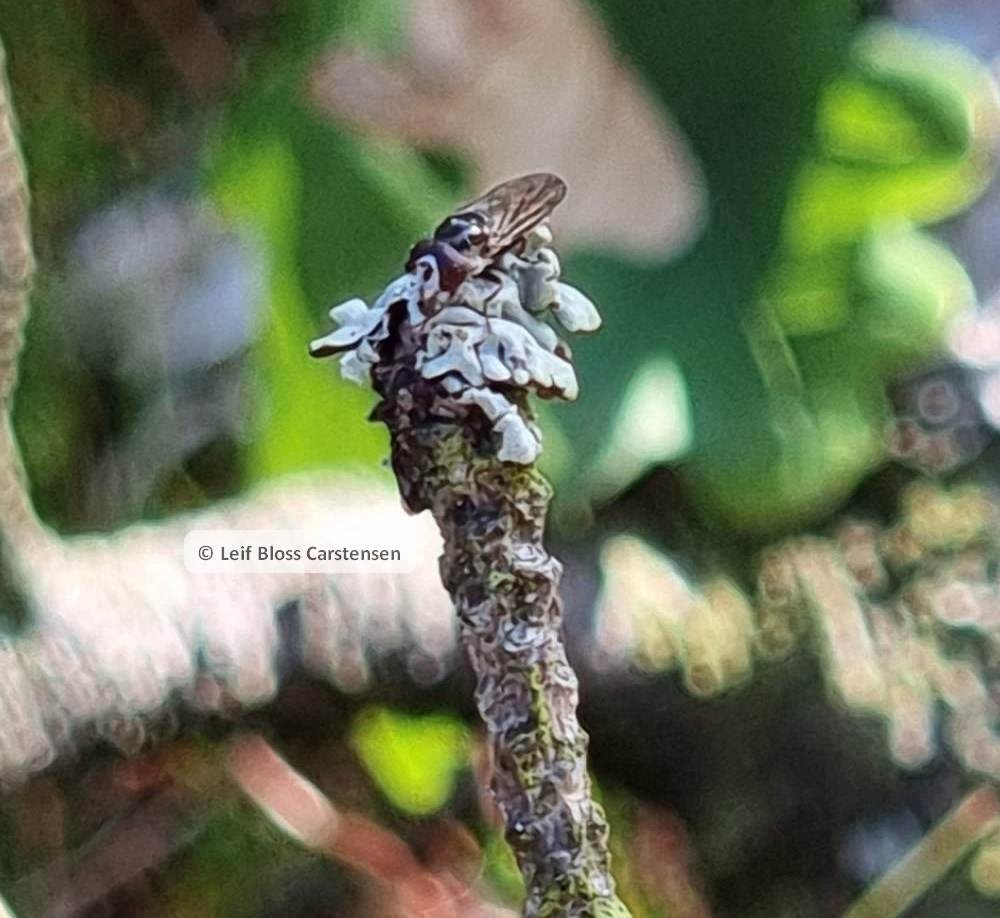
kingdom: Animalia
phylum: Arthropoda
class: Insecta
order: Diptera
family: Syrphidae
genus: Chamaesyrphus
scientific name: Chamaesyrphus lugubris
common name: Dværg-svirreflue
